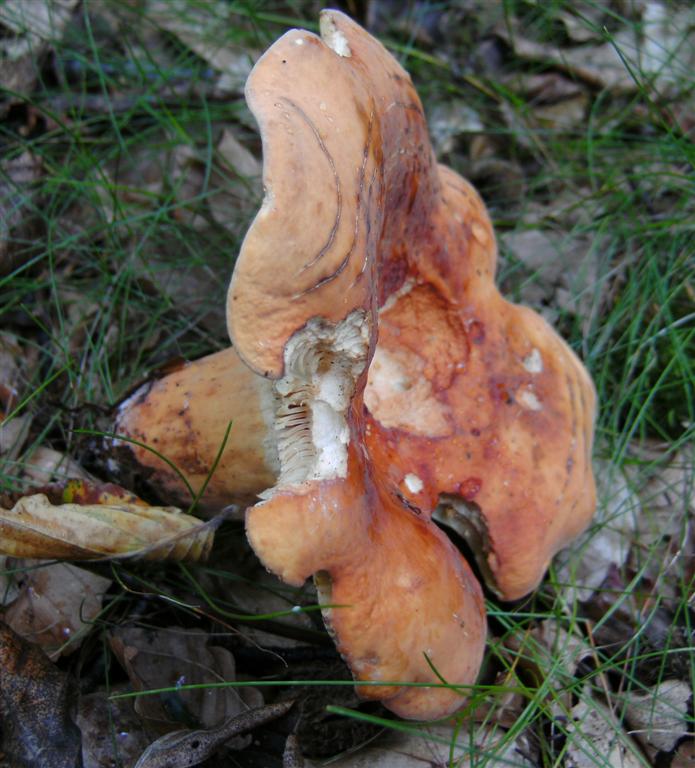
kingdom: Fungi
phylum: Basidiomycota
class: Agaricomycetes
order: Russulales
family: Russulaceae
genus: Lactifluus
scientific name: Lactifluus volemus
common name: spiselig mælkehat
